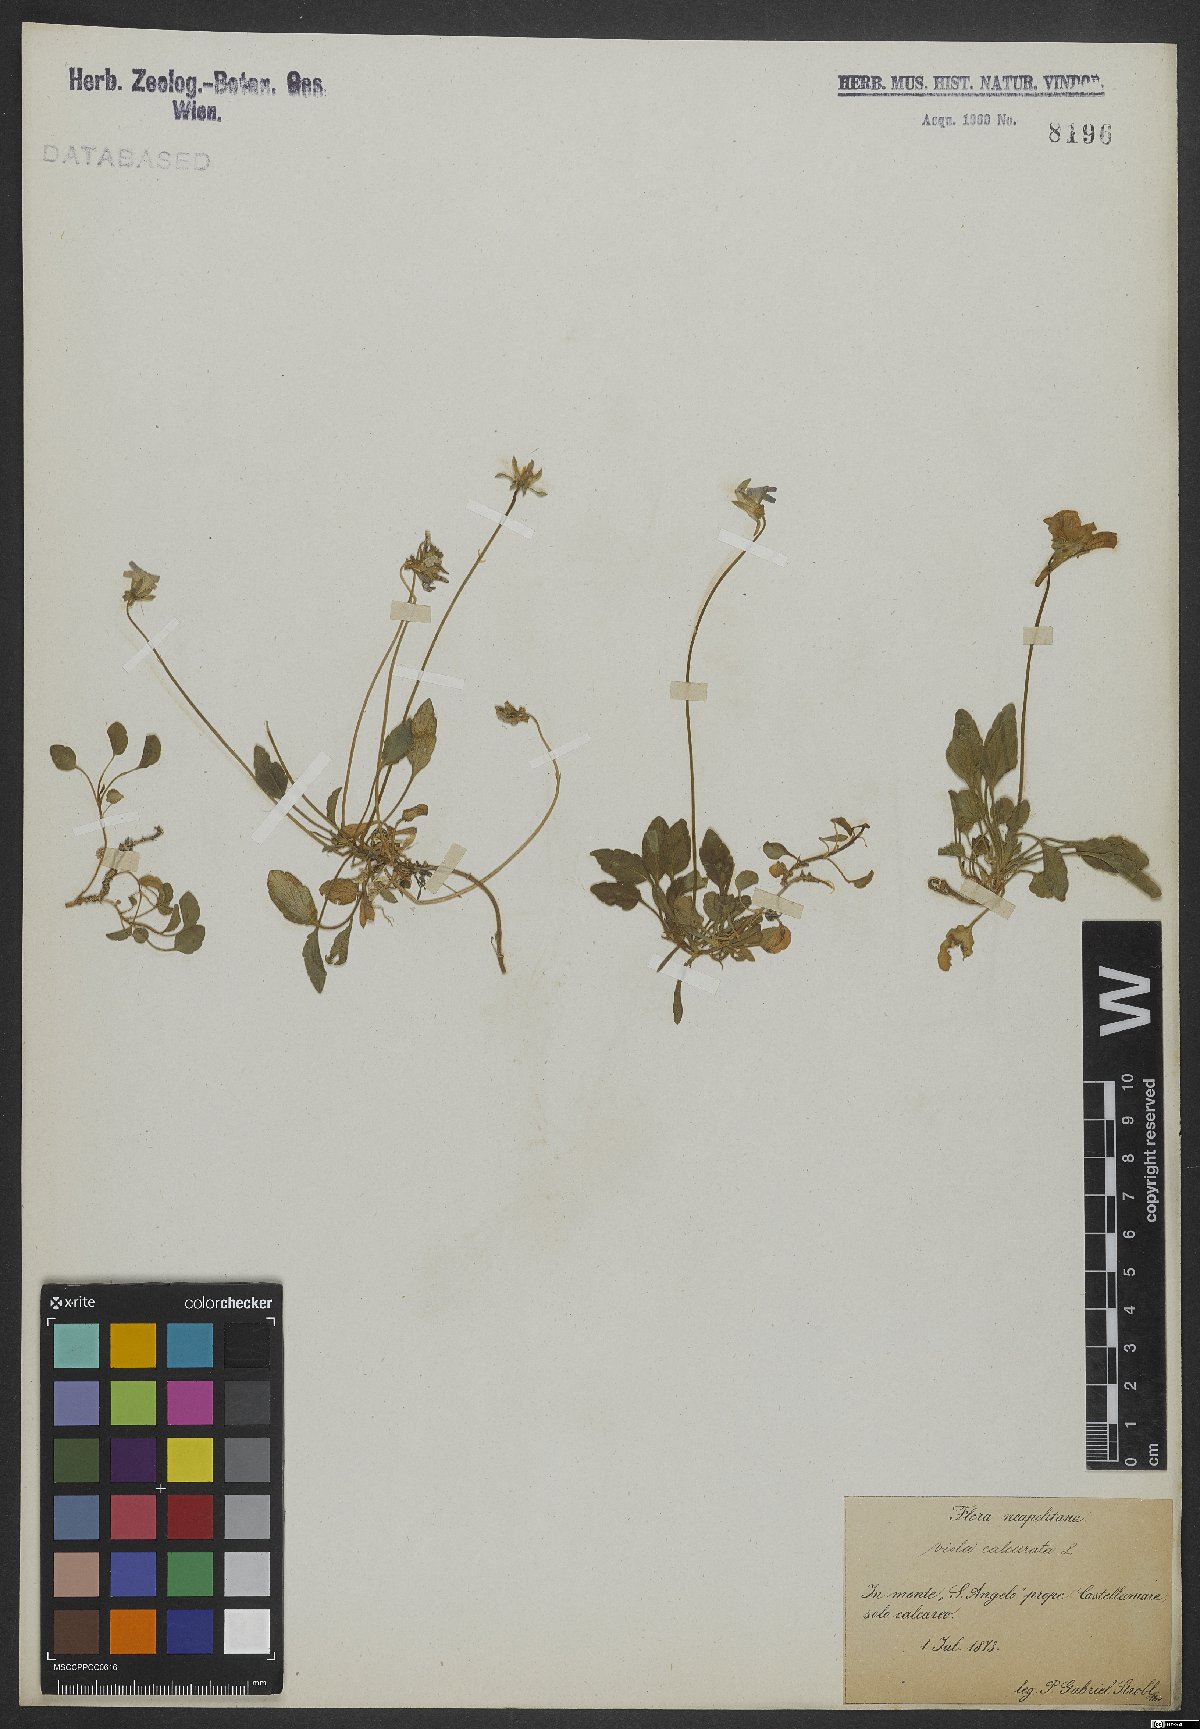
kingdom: Plantae
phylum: Tracheophyta
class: Magnoliopsida
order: Malpighiales
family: Violaceae
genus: Viola
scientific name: Viola pseudogracilis
